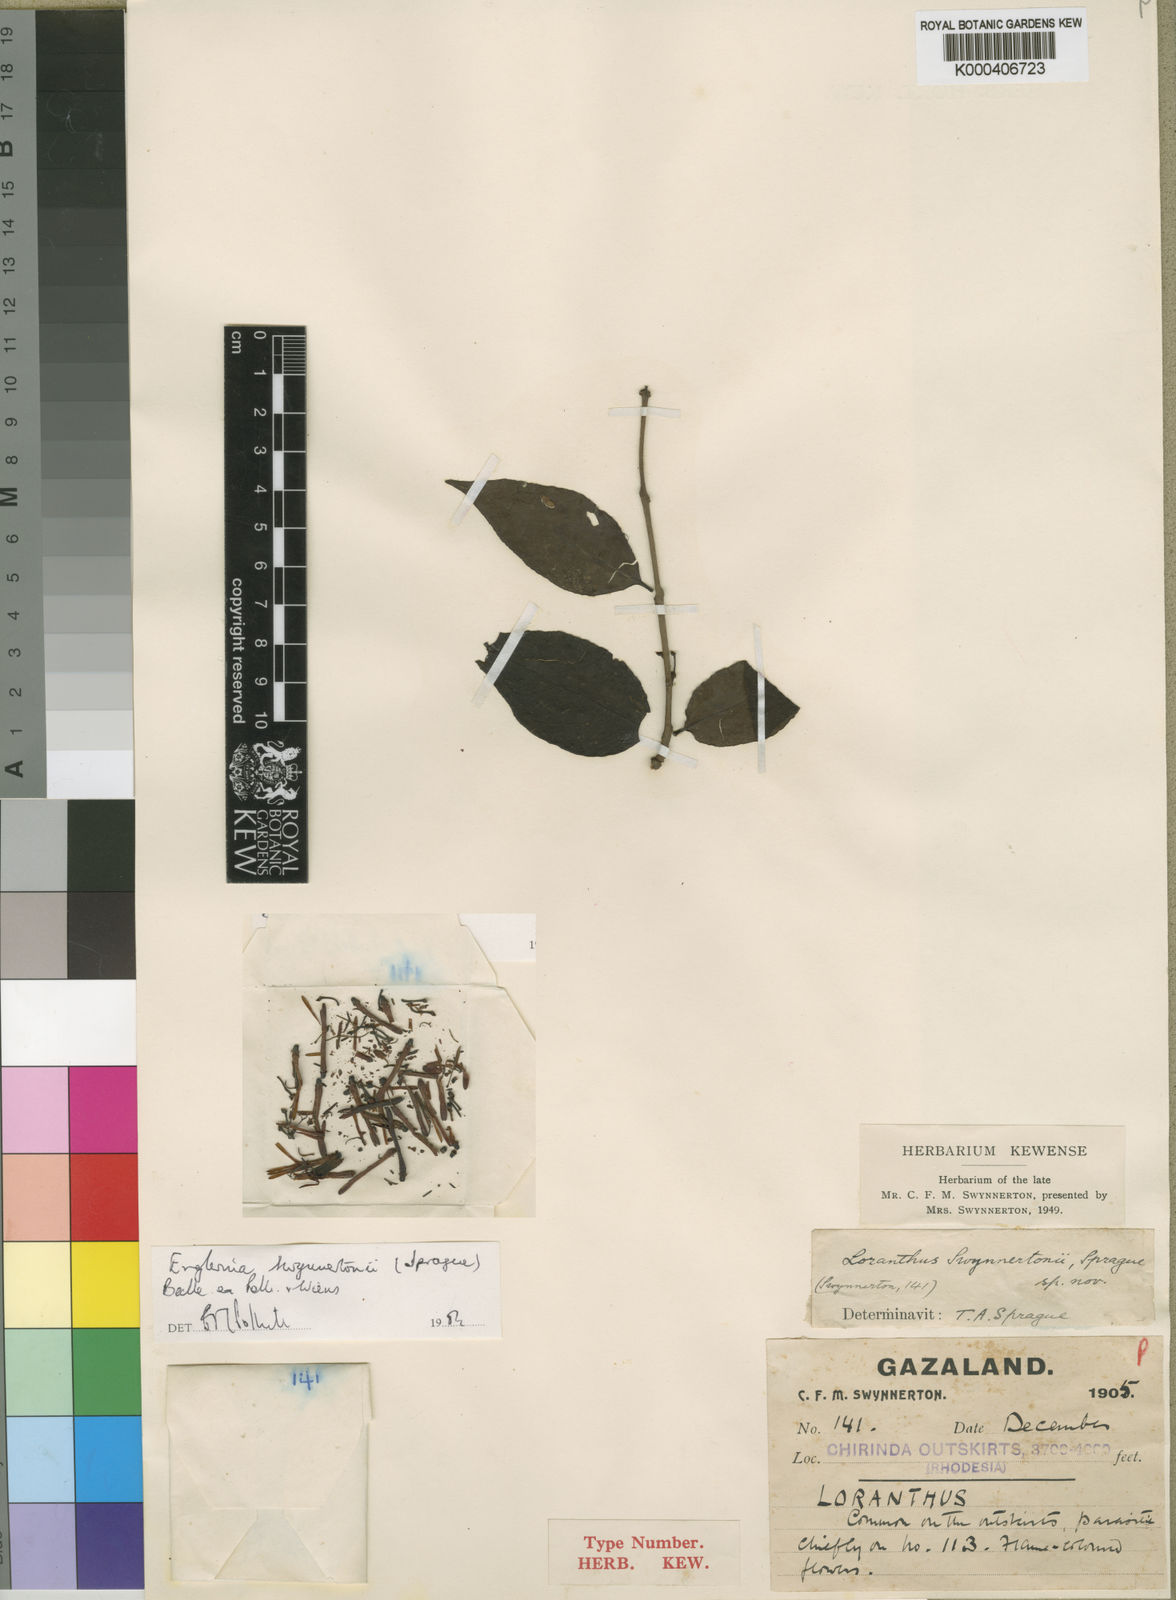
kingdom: Plantae
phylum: Tracheophyta
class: Magnoliopsida
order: Santalales
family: Loranthaceae
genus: Englerina
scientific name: Englerina swynnertonii
